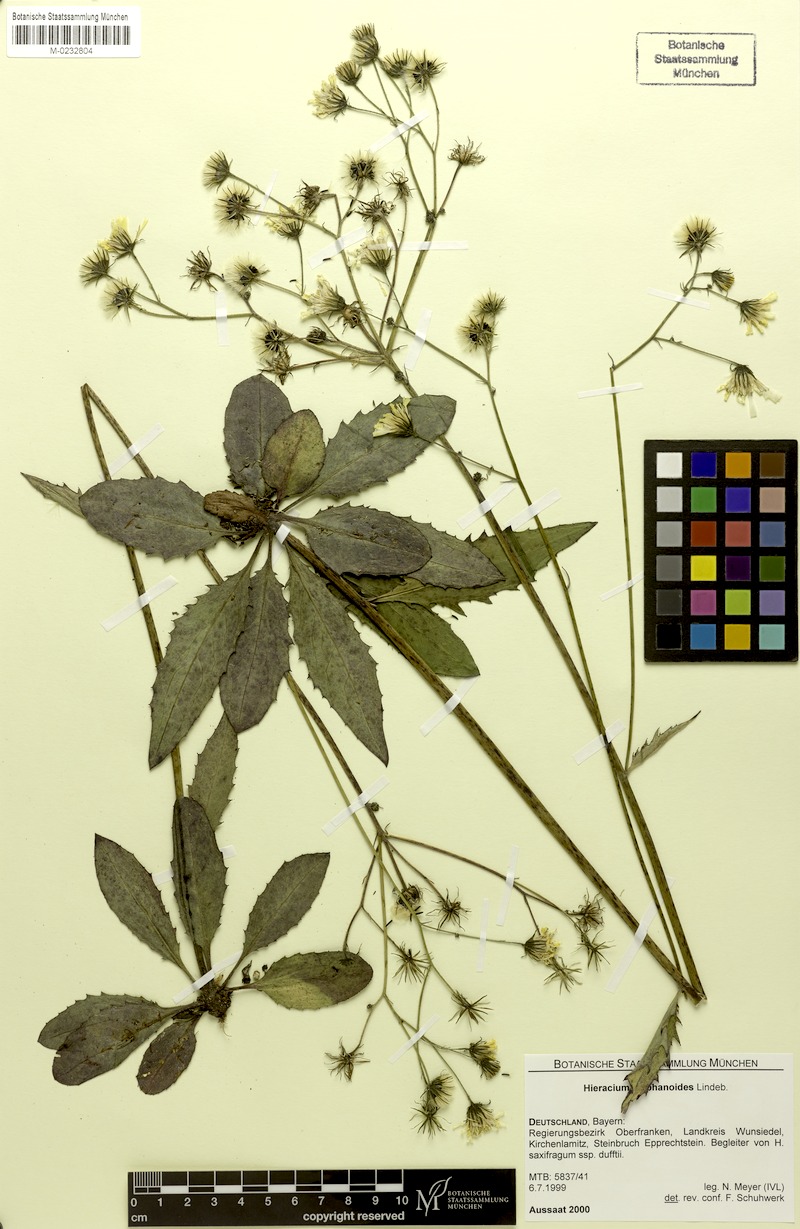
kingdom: Plantae
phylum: Tracheophyta
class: Magnoliopsida
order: Asterales
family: Asteraceae
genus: Hieracium
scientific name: Hieracium diaphanoides
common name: Fine-bracted hawkweed
